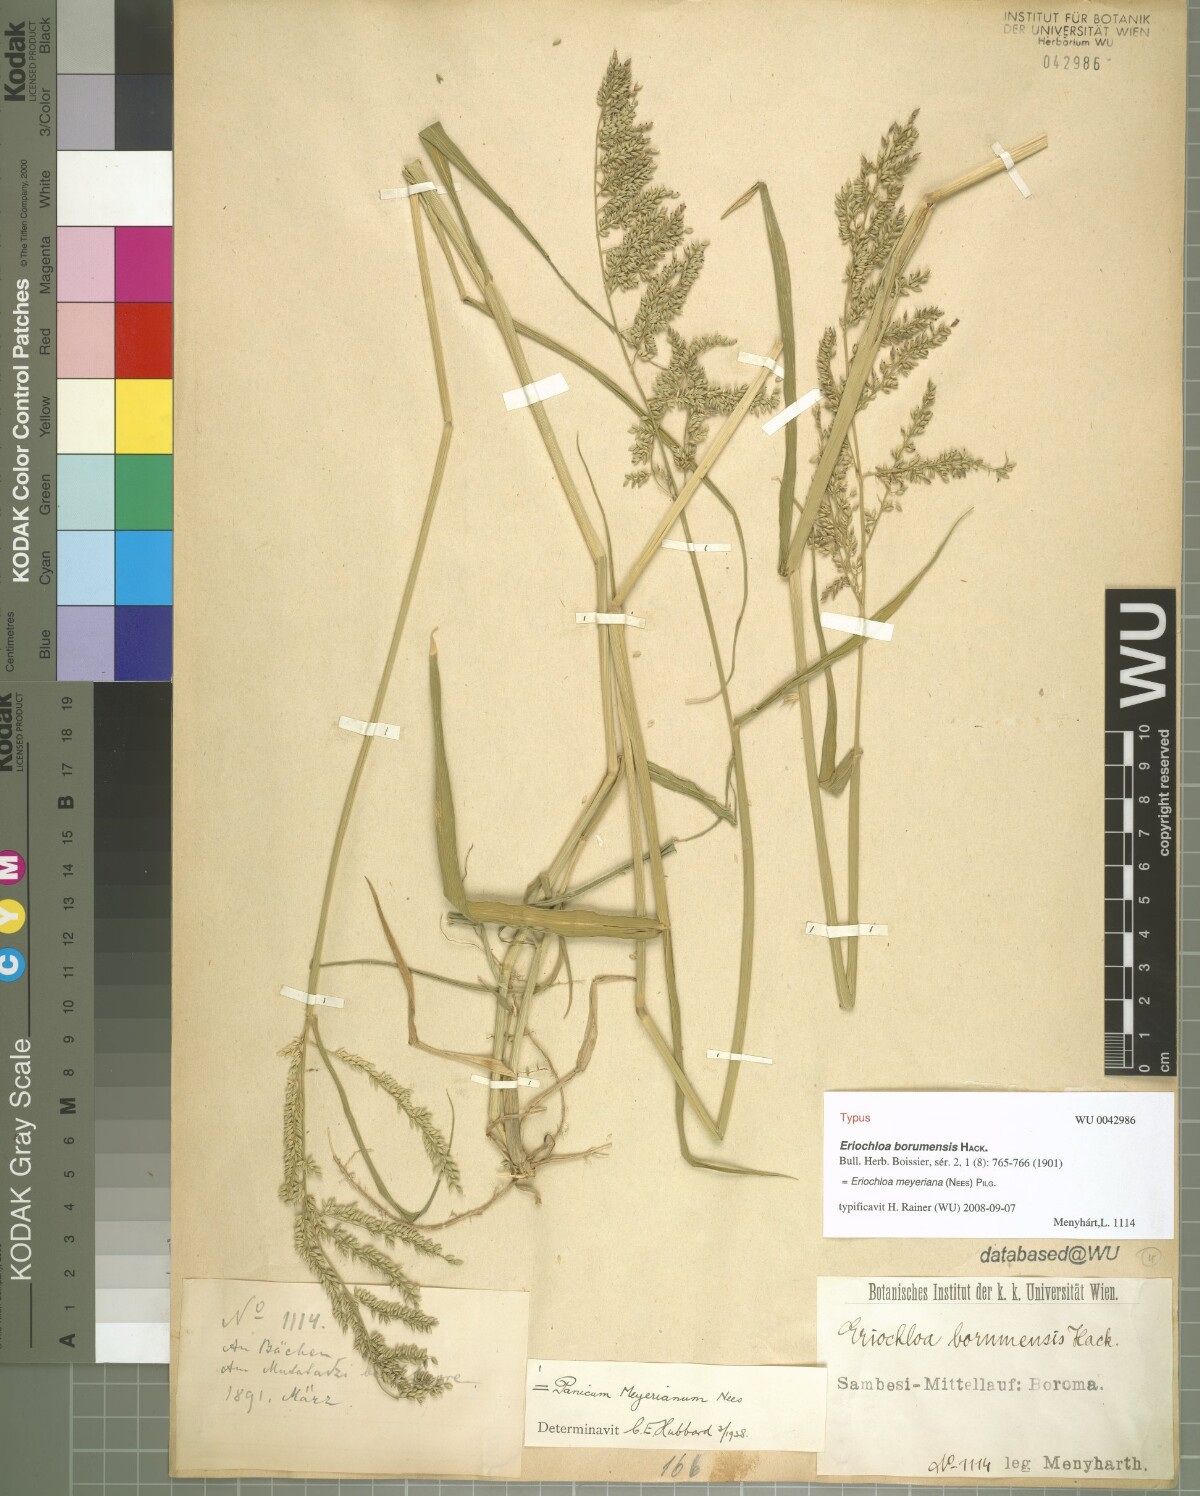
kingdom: Plantae
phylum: Tracheophyta
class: Liliopsida
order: Poales
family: Poaceae
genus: Eriochloa
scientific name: Eriochloa meyeriana
